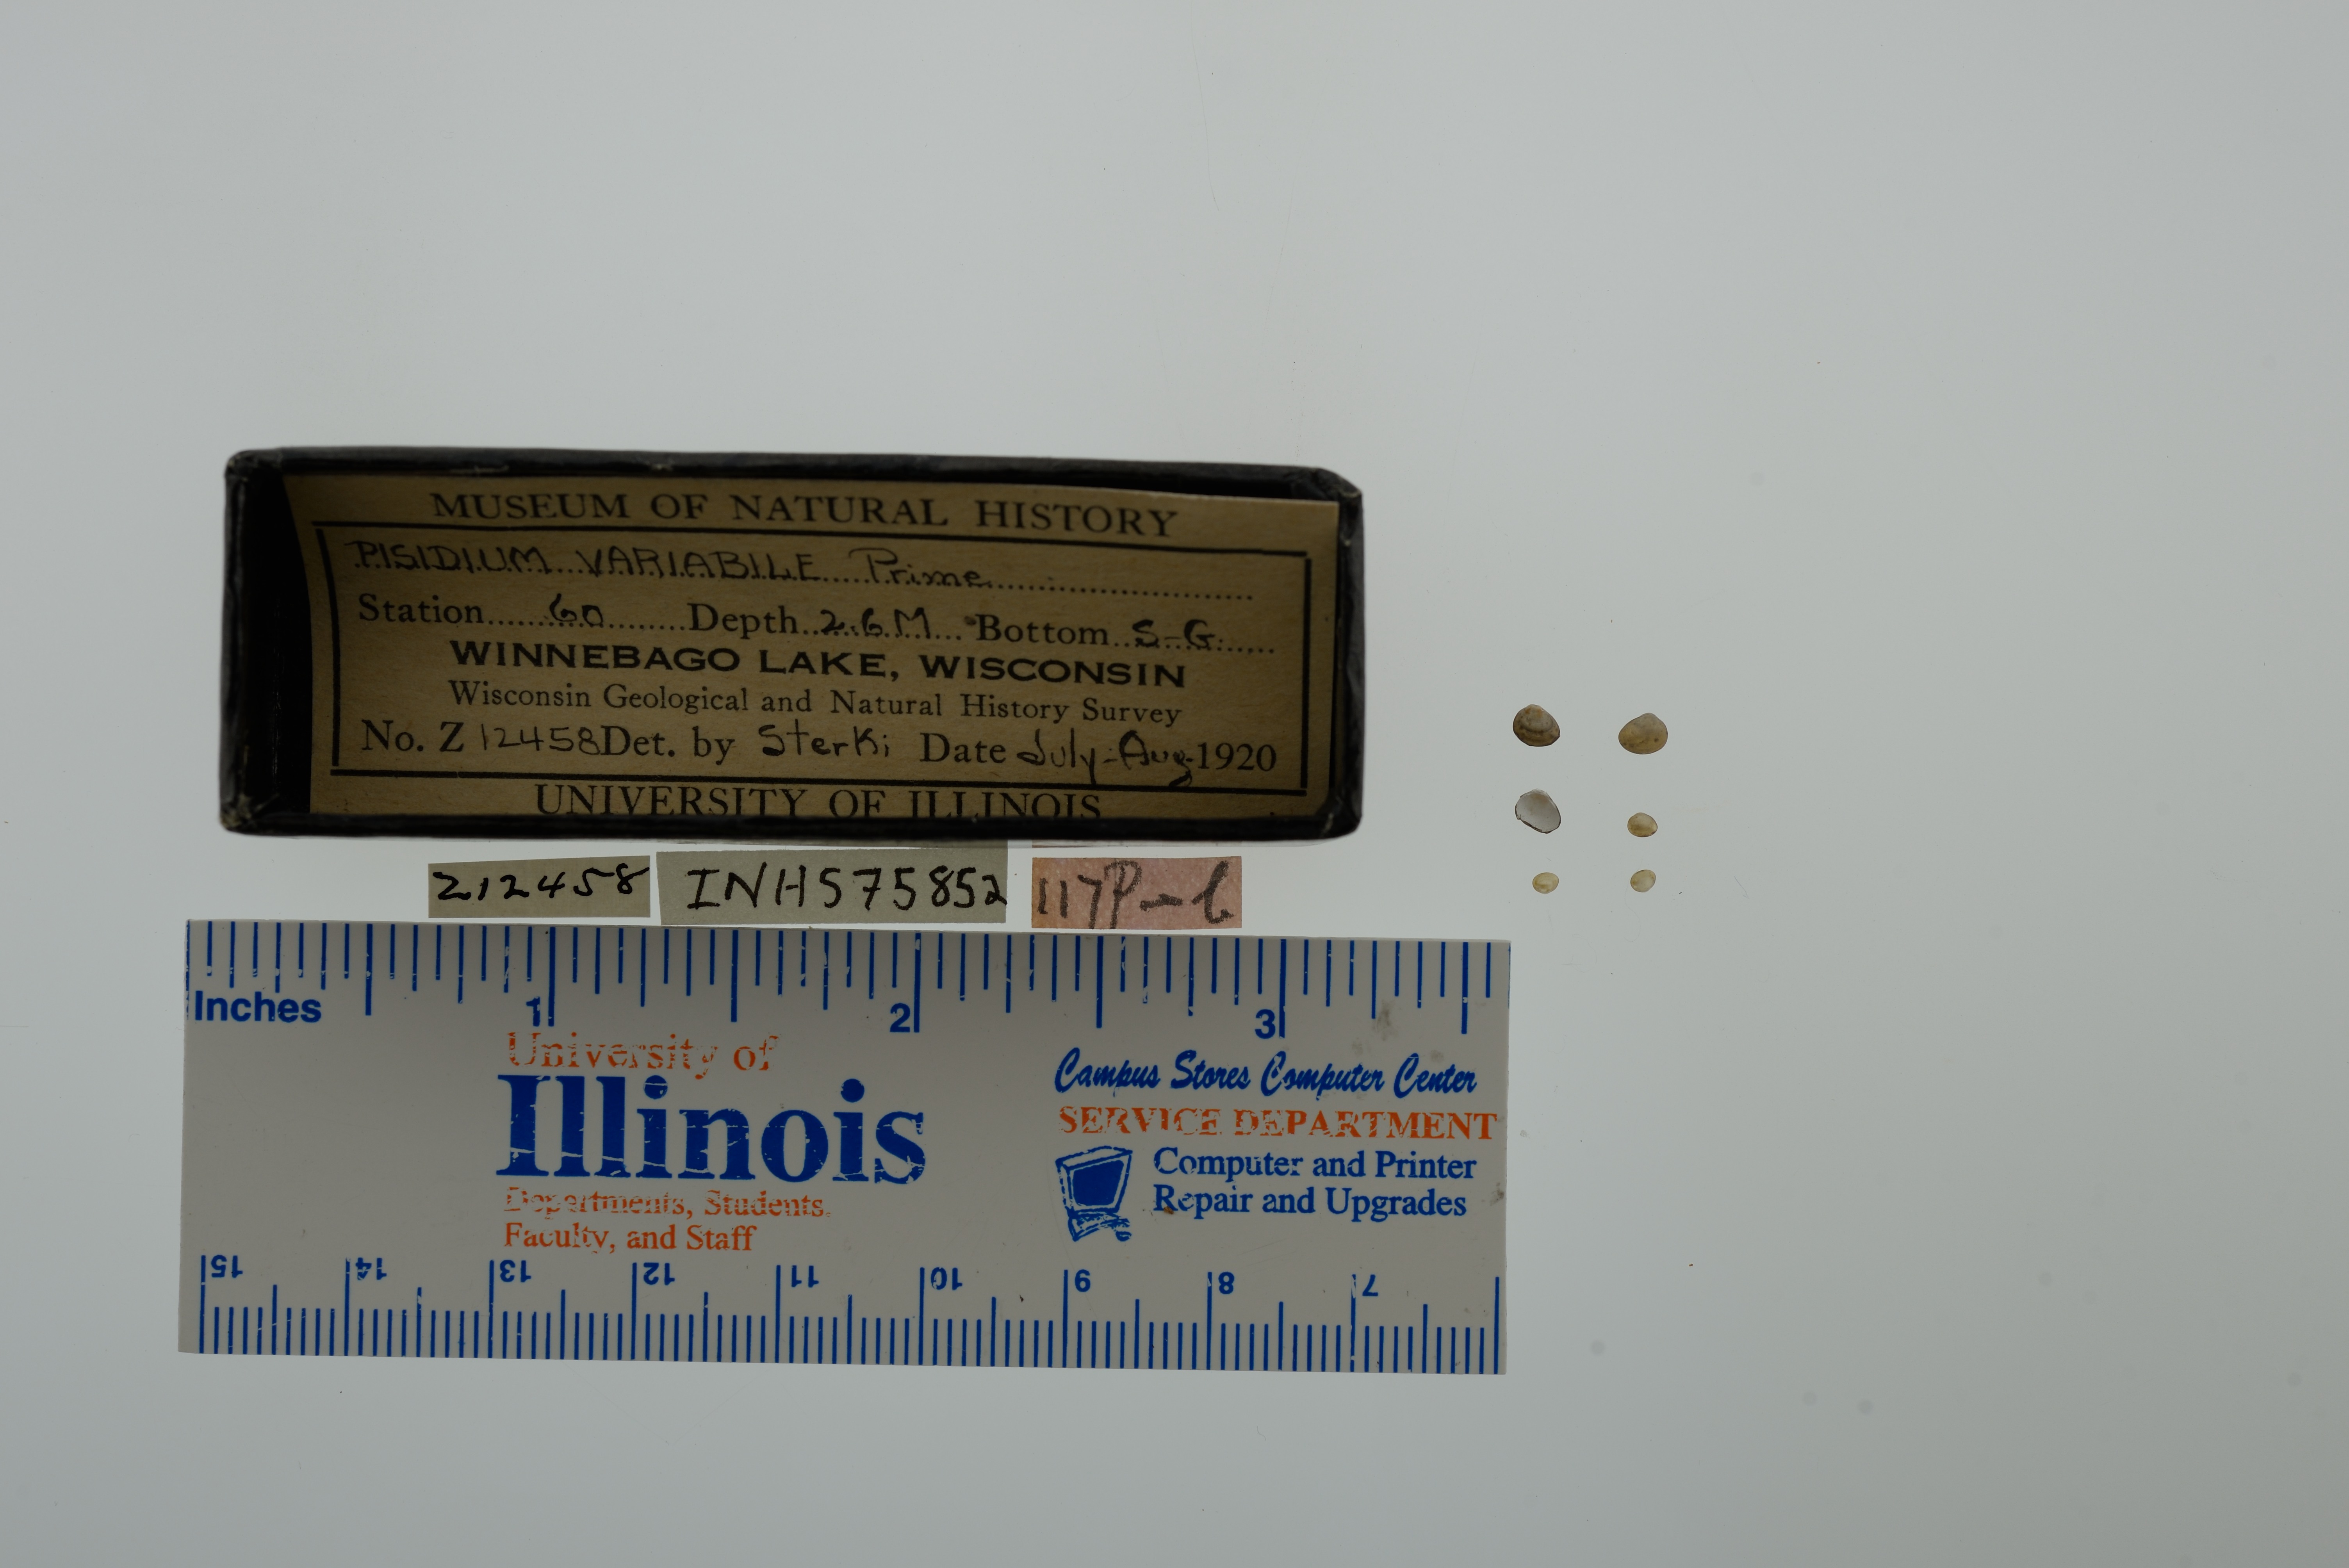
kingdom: Animalia
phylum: Mollusca
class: Bivalvia
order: Sphaeriida
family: Sphaeriidae
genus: Euglesa
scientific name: Euglesa variabilis
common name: Triangular peaclam
